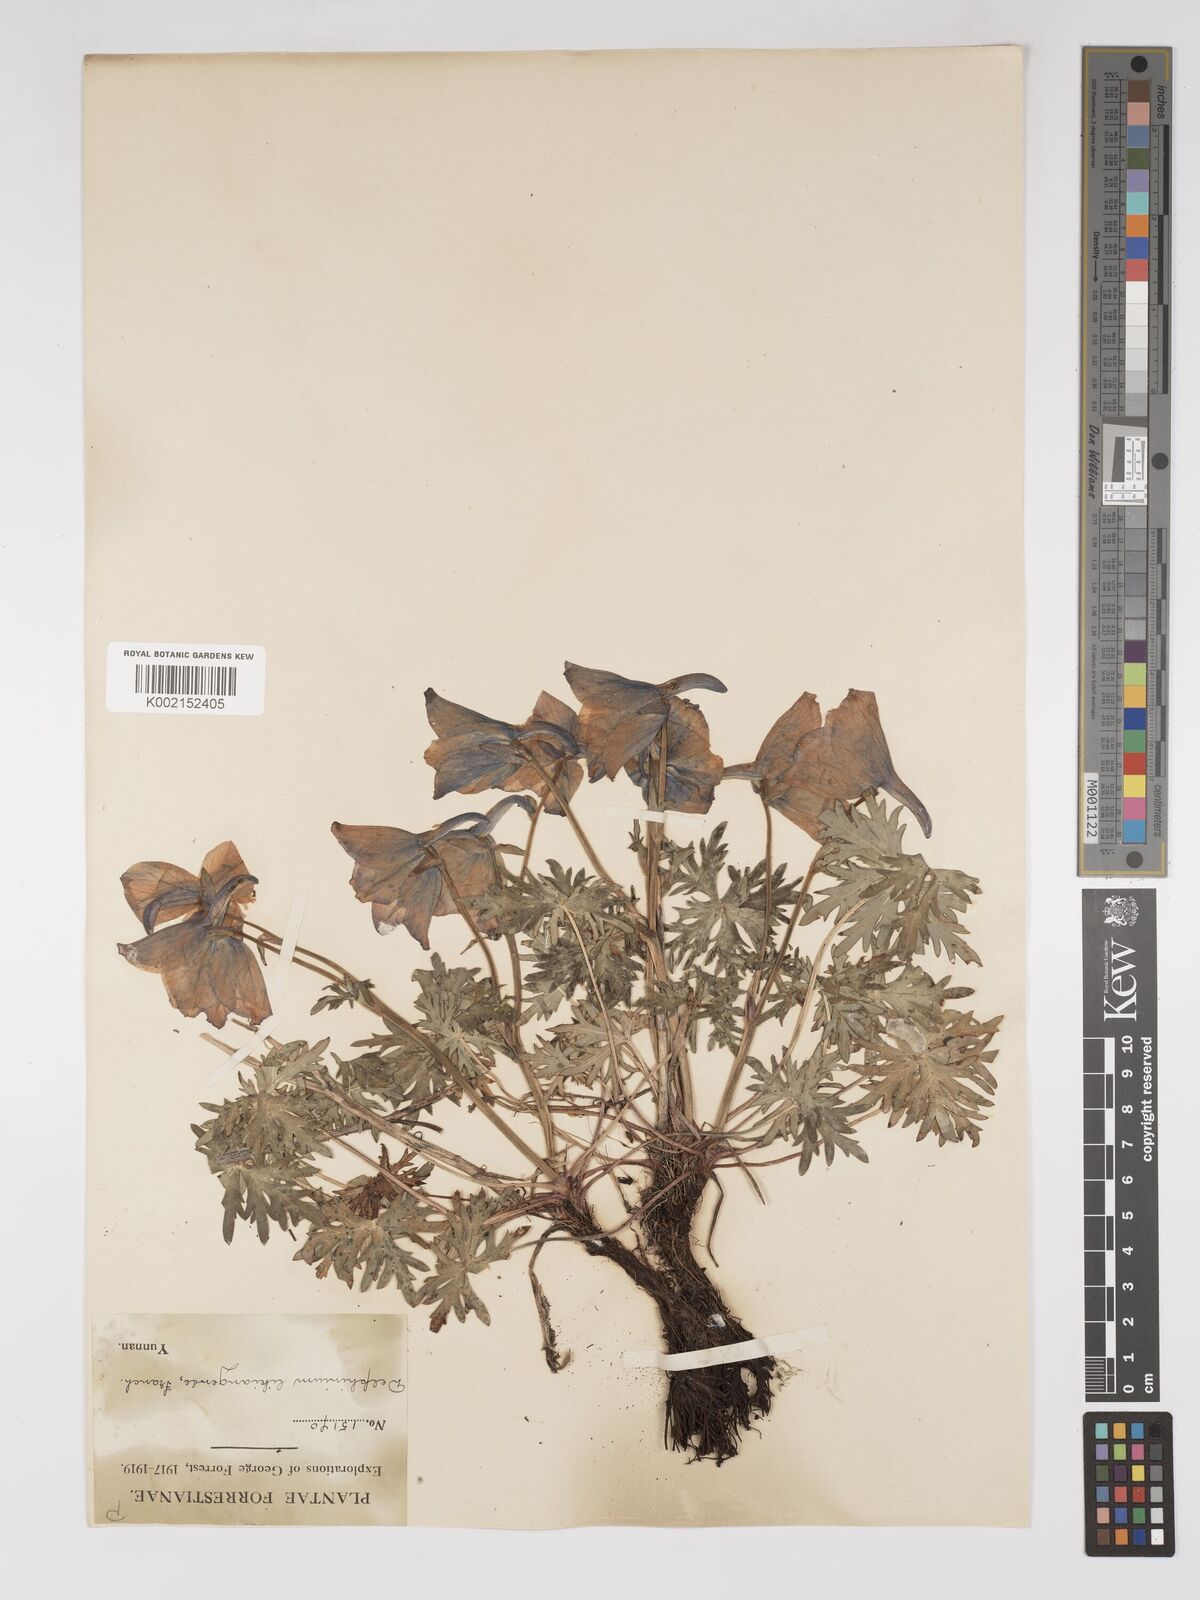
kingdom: Plantae
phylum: Tracheophyta
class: Magnoliopsida
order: Ranunculales
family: Ranunculaceae
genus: Delphinium
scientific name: Delphinium likiangense
